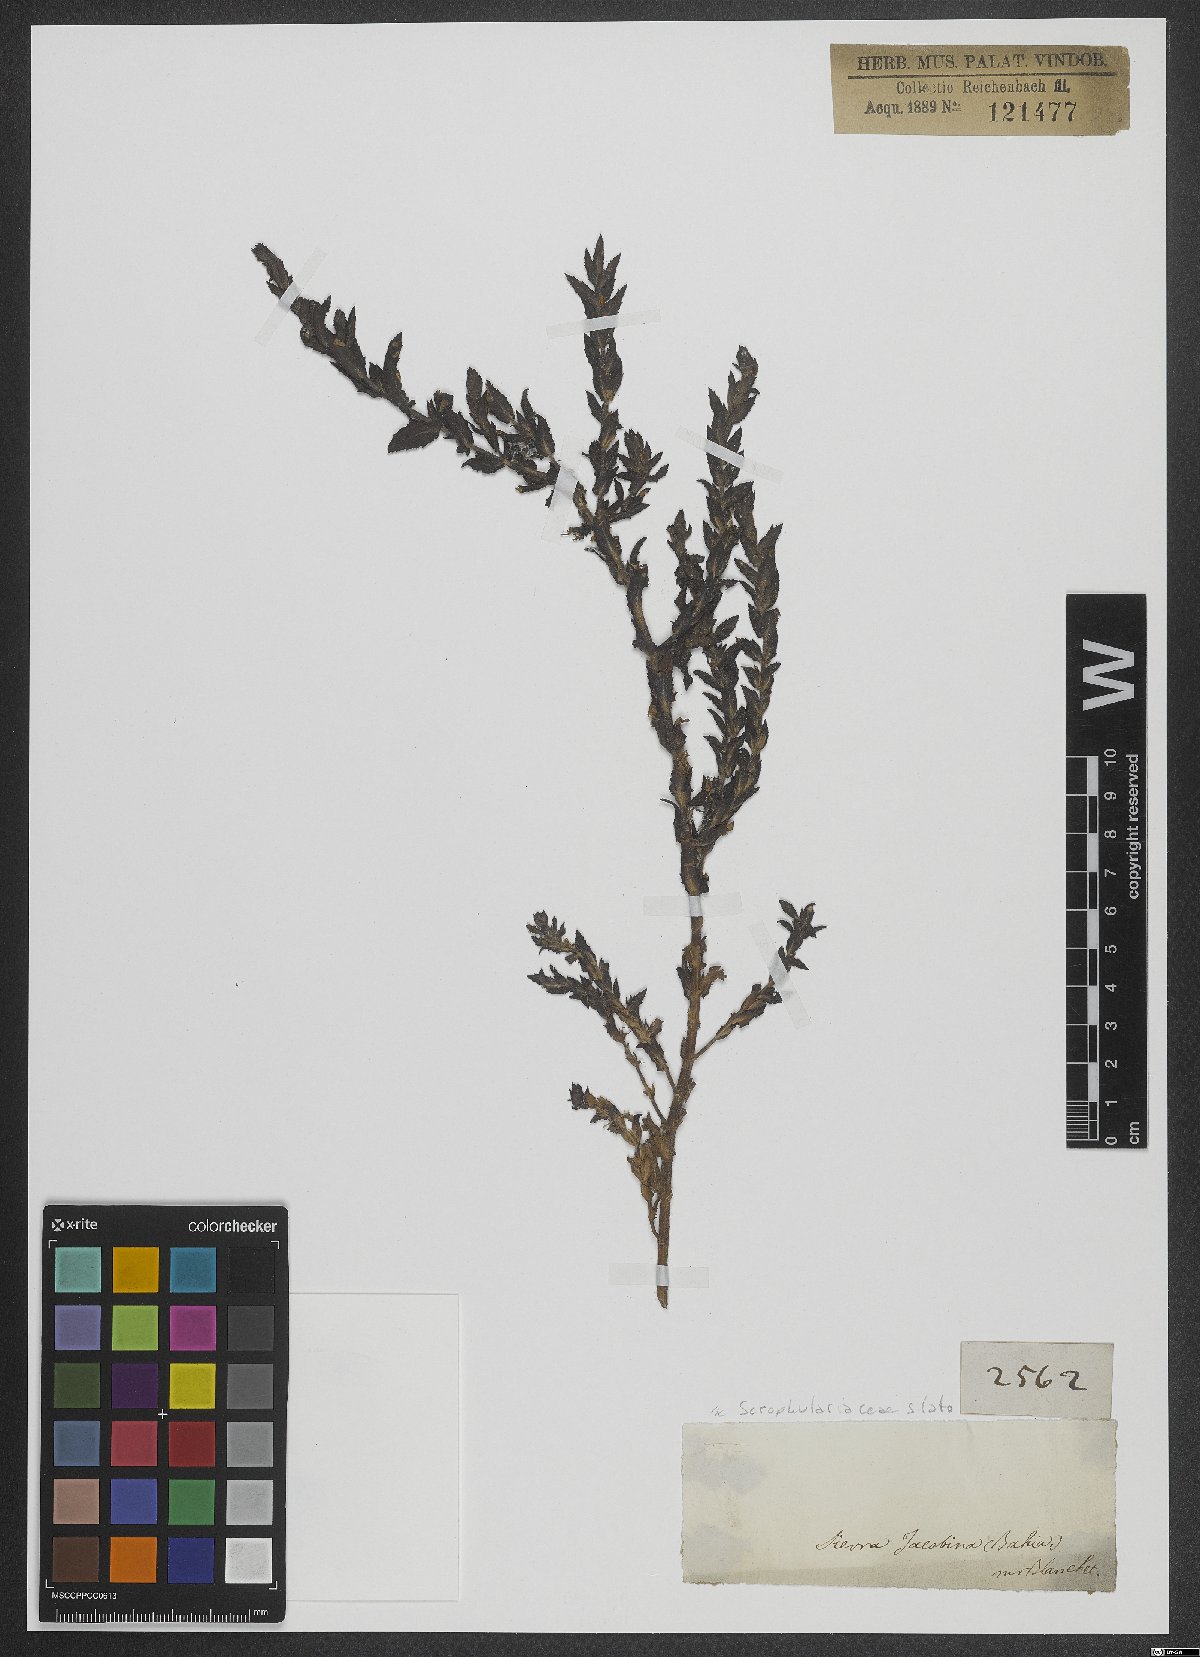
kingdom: Plantae
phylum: Tracheophyta
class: Magnoliopsida
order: Lamiales
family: Scrophulariaceae
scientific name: Scrophulariaceae
